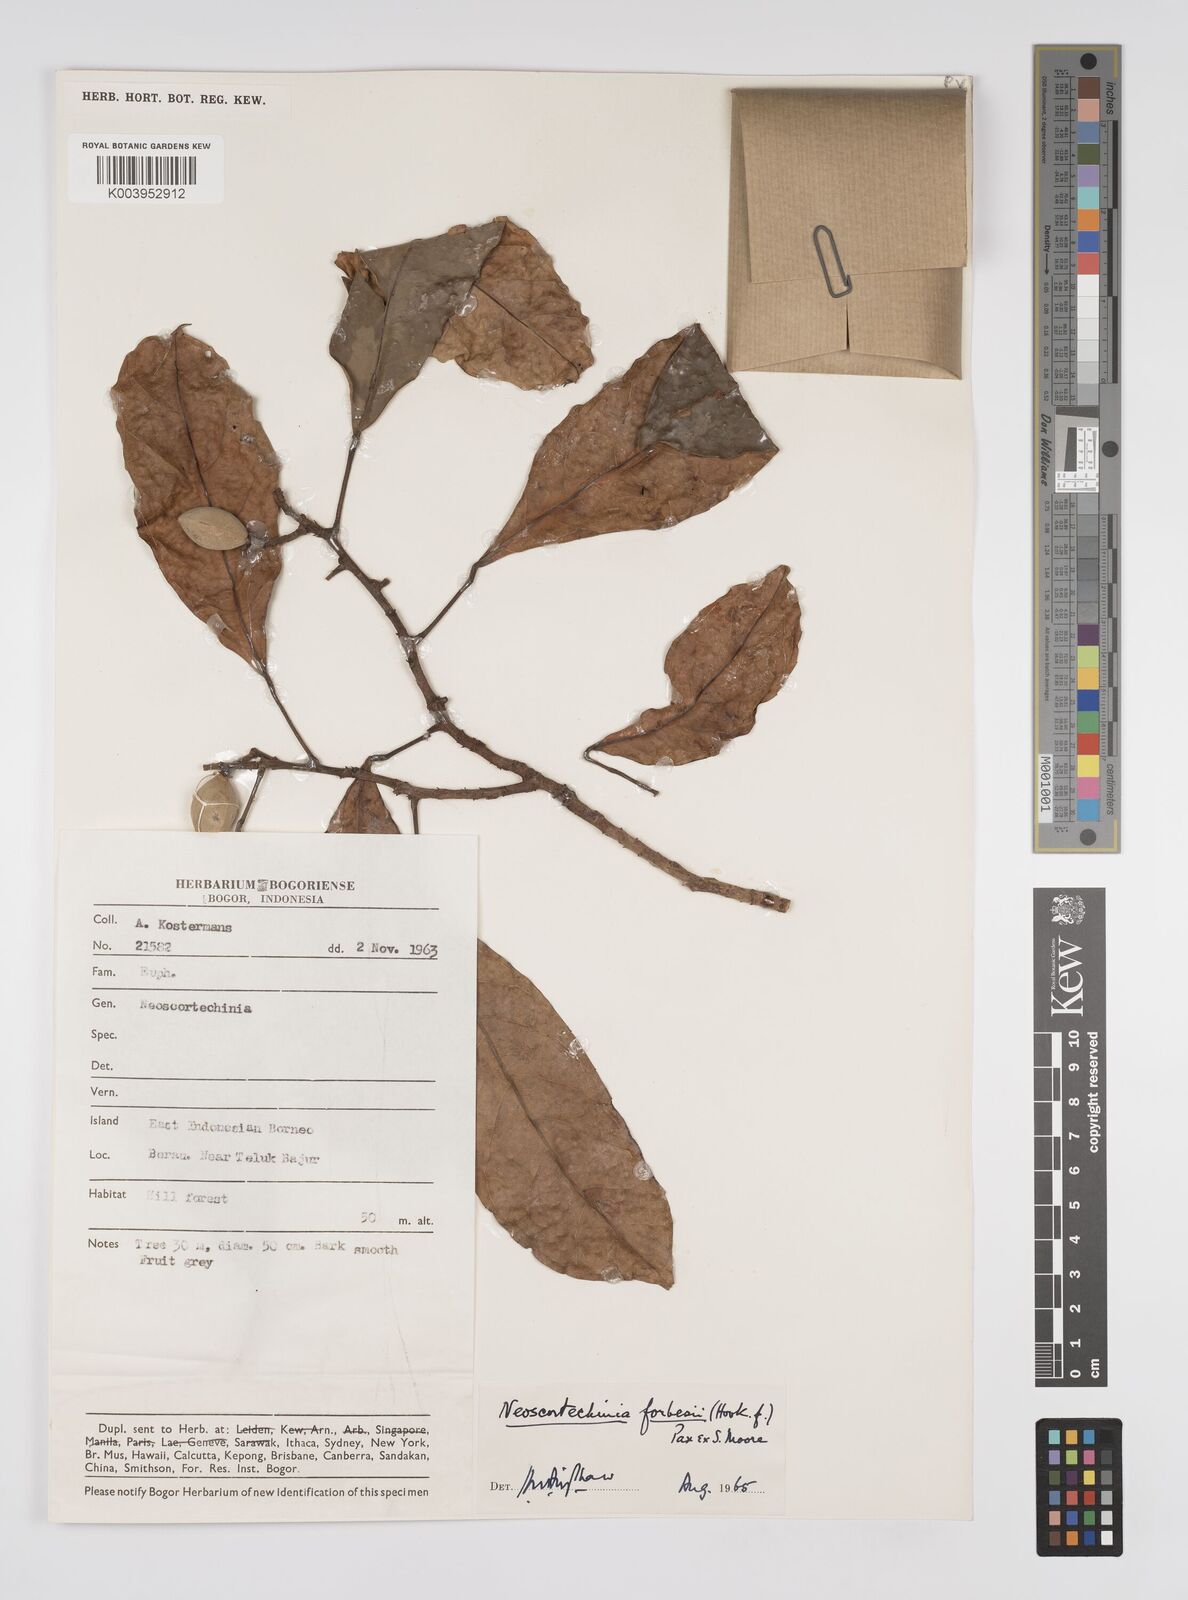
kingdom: Plantae
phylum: Tracheophyta
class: Magnoliopsida
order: Malpighiales
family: Euphorbiaceae
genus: Neoscortechinia
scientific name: Neoscortechinia philippinensis
